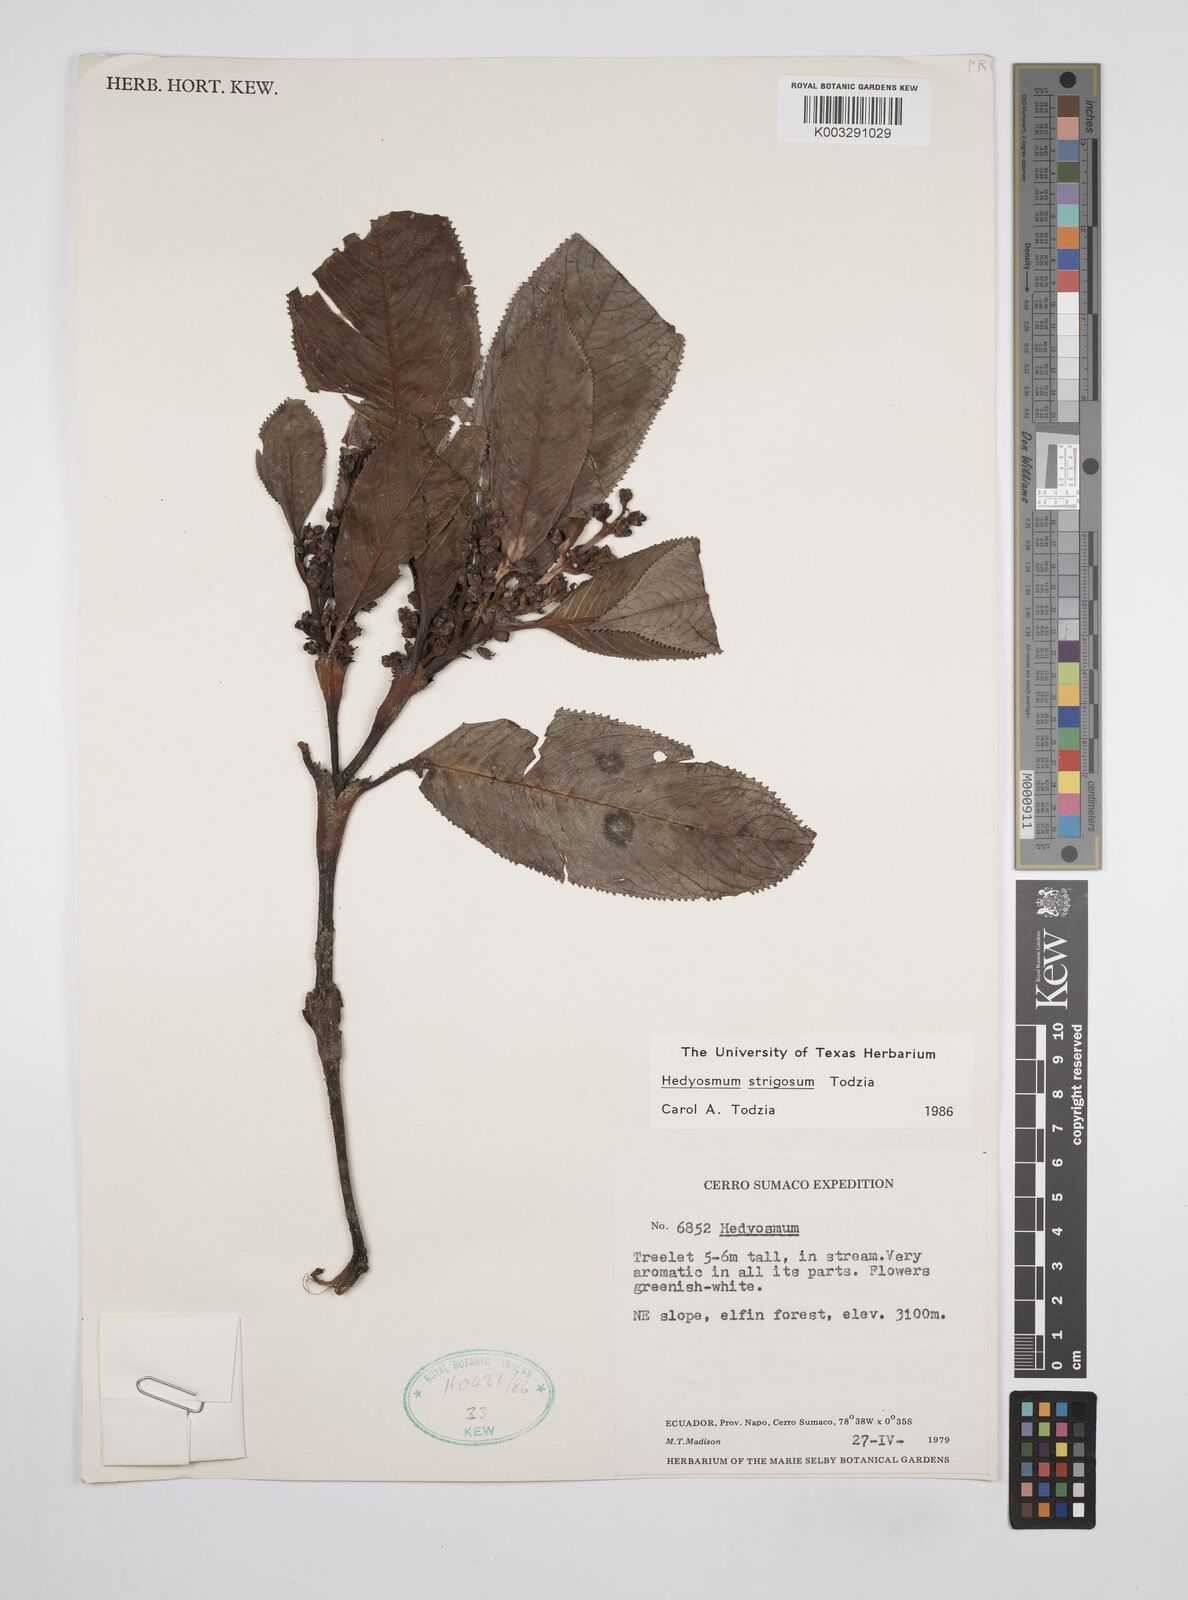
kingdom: Plantae
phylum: Tracheophyta
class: Magnoliopsida
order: Chloranthales
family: Chloranthaceae
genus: Hedyosmum
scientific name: Hedyosmum strigosum
